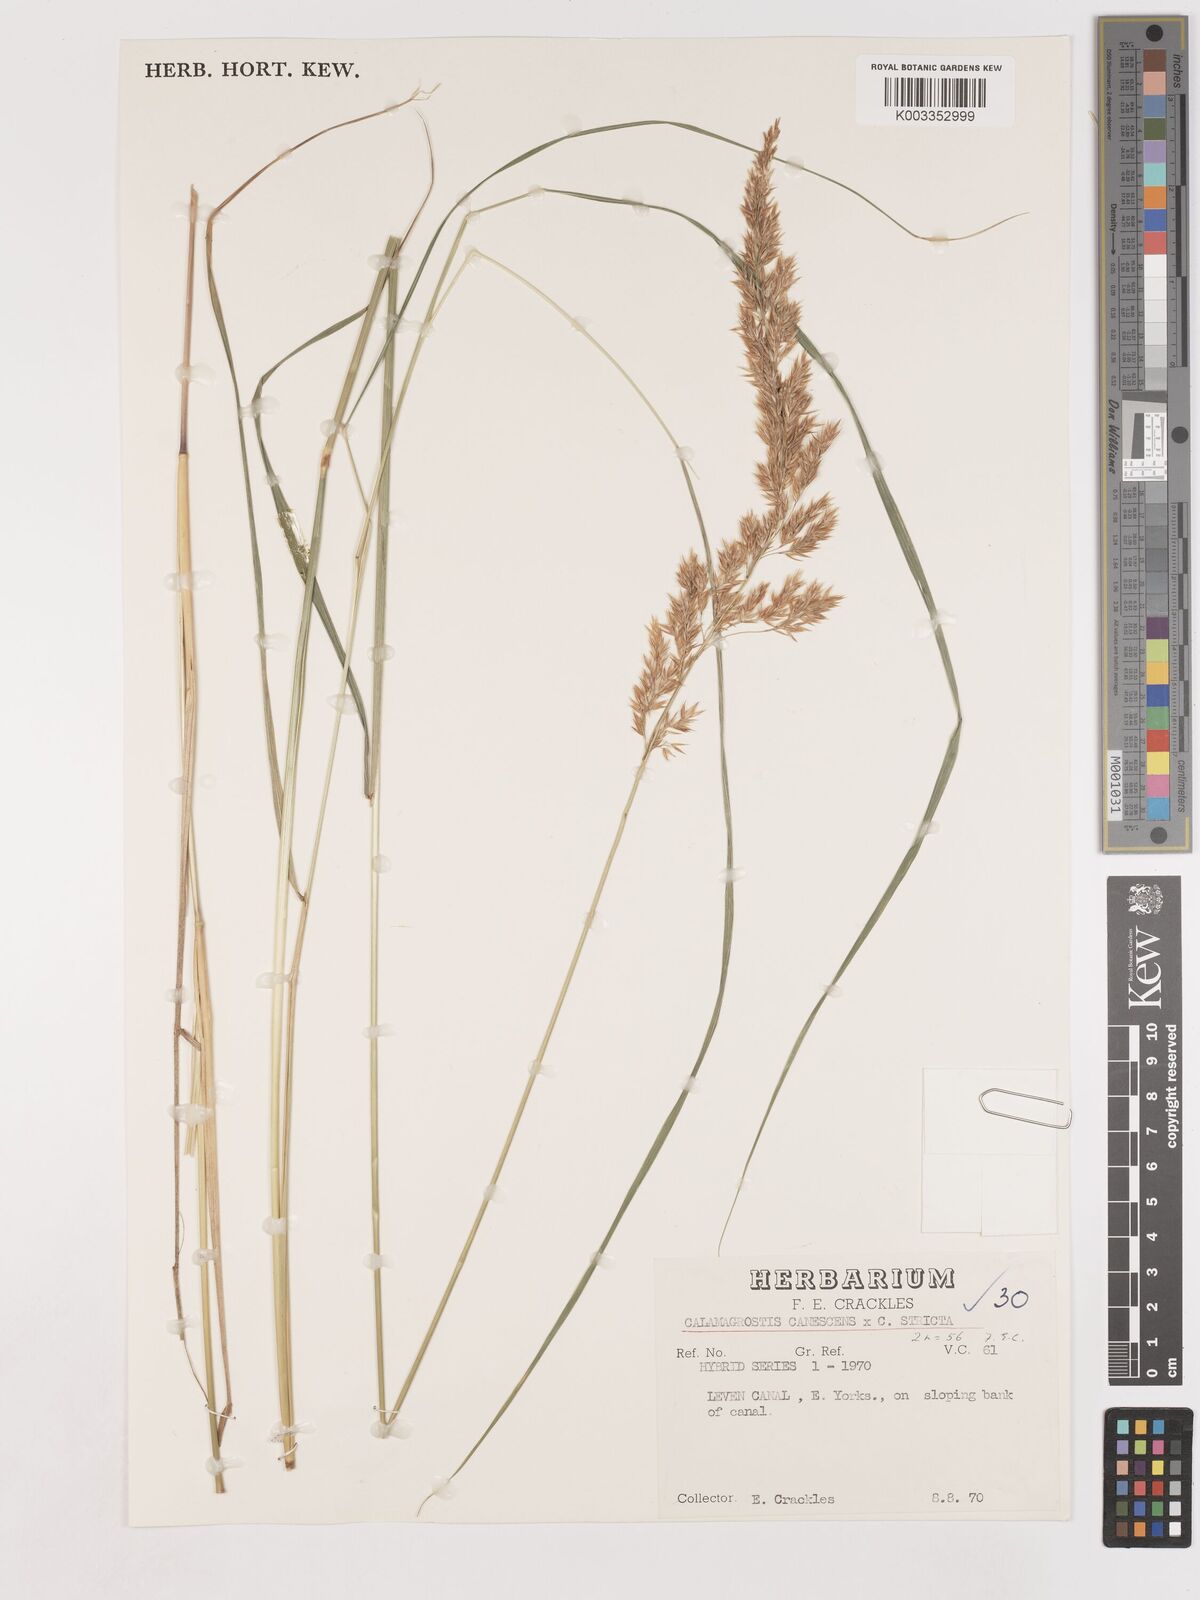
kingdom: Plantae
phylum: Tracheophyta
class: Liliopsida
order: Poales
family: Poaceae
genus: Calamagrostis
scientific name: Calamagrostis canescens
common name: Purple small-reed
